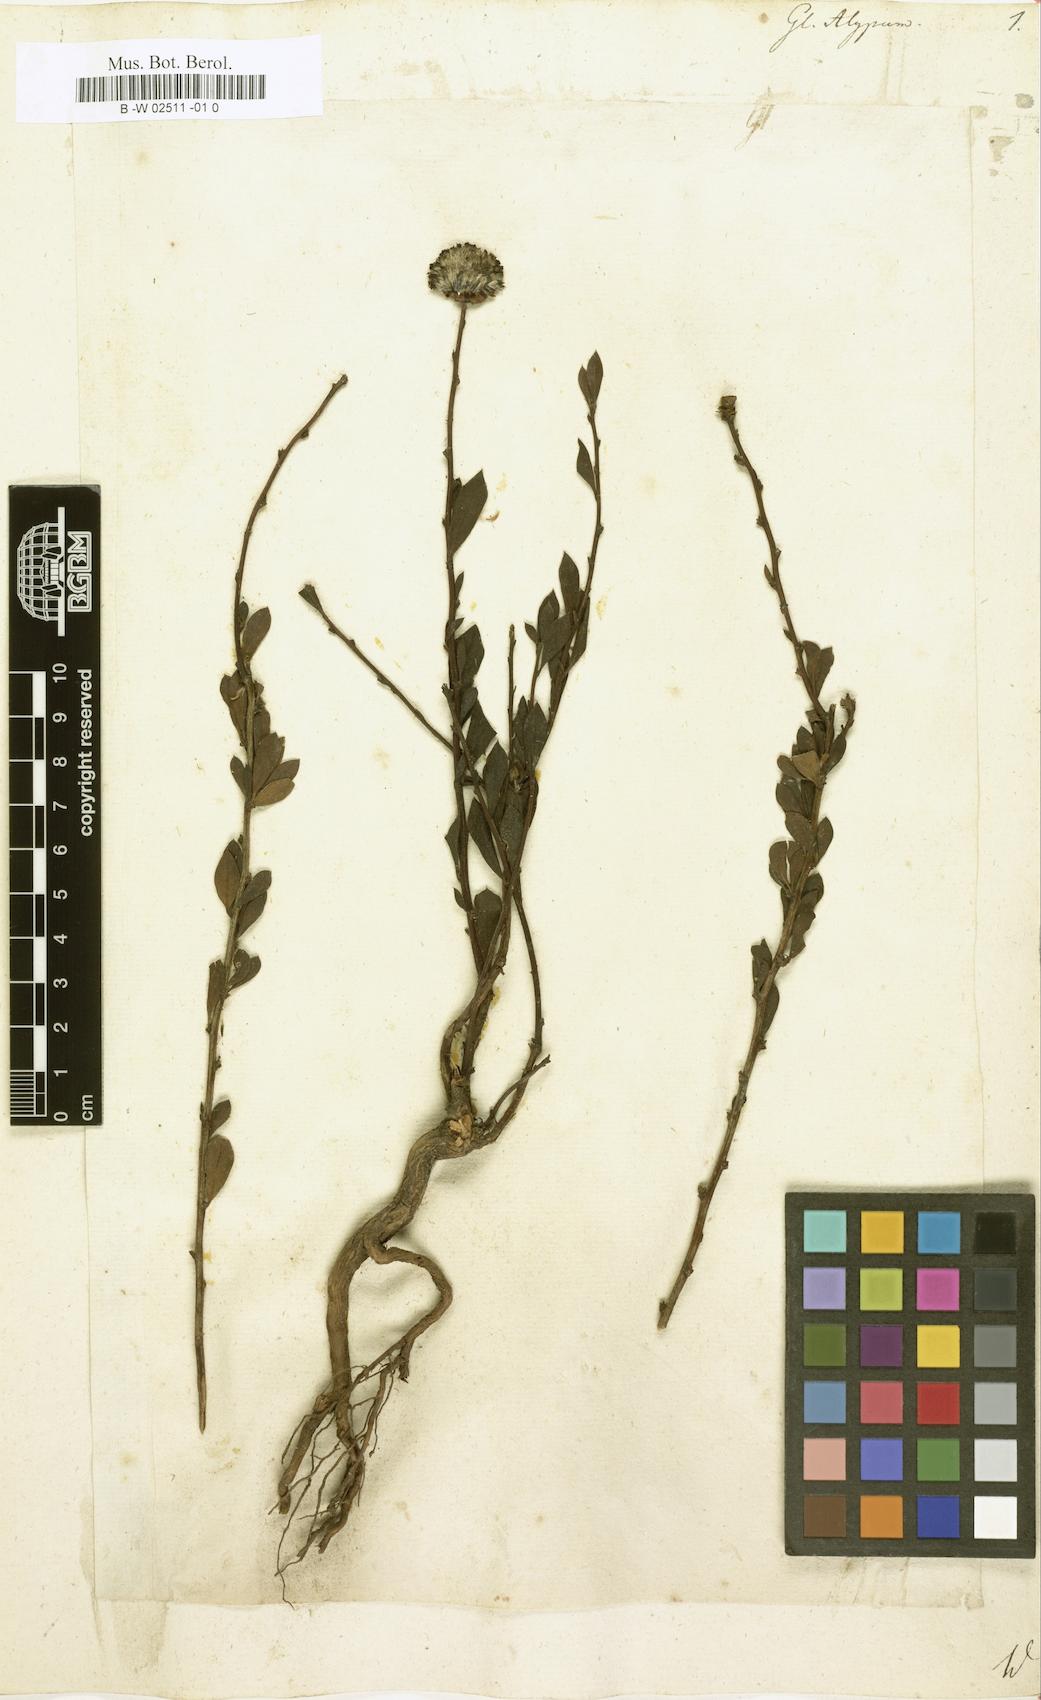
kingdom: Plantae
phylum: Tracheophyta
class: Magnoliopsida
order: Lamiales
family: Plantaginaceae
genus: Globularia
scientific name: Globularia alypum
